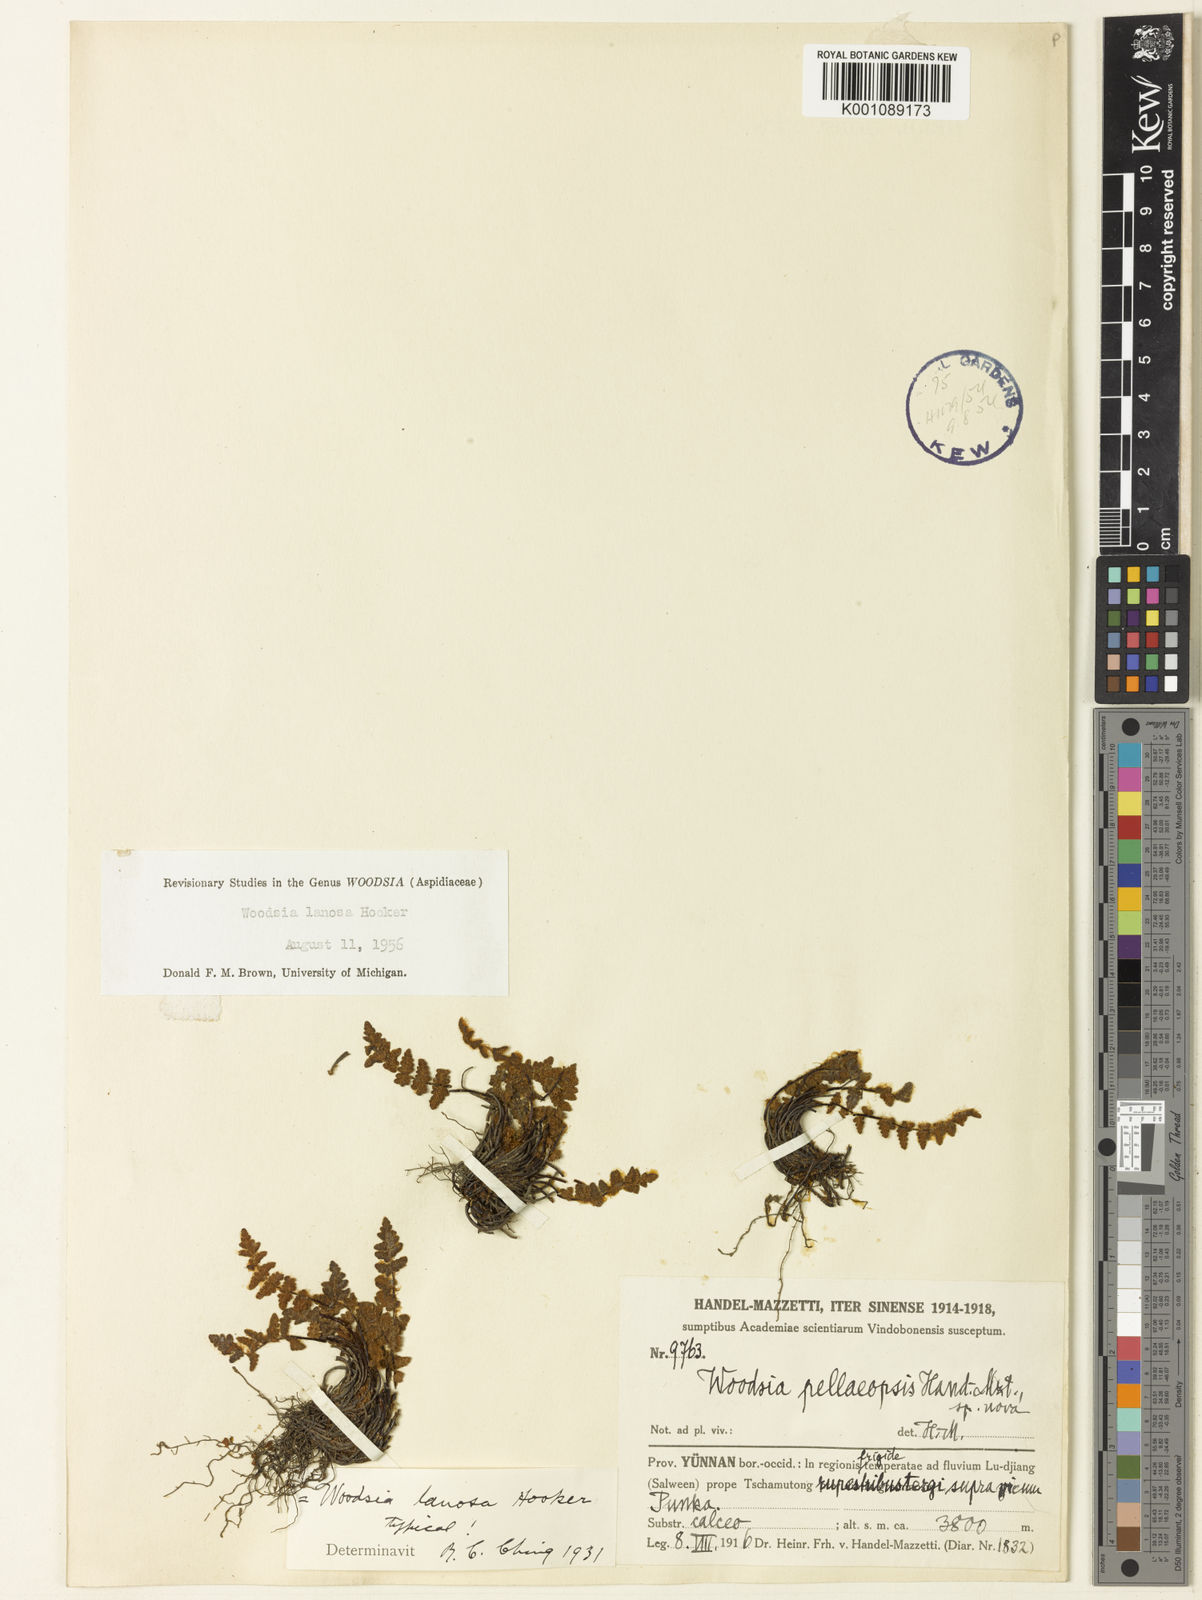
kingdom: Plantae
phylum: Tracheophyta
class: Polypodiopsida
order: Polypodiales
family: Woodsiaceae
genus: Woodsia
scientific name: Woodsia lanosa
